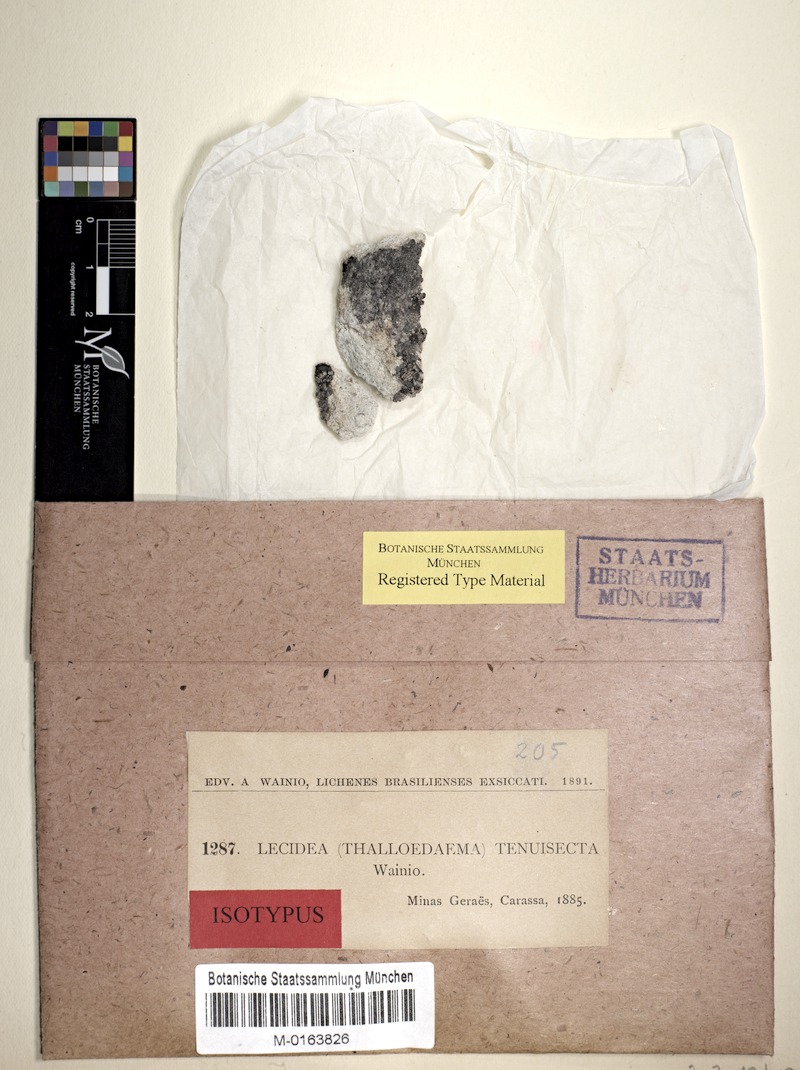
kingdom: Fungi
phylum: Ascomycota
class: Lecanoromycetes
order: Lecanorales
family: Ramalinaceae
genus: Bacidiopsora
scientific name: Bacidiopsora tenuisecta
